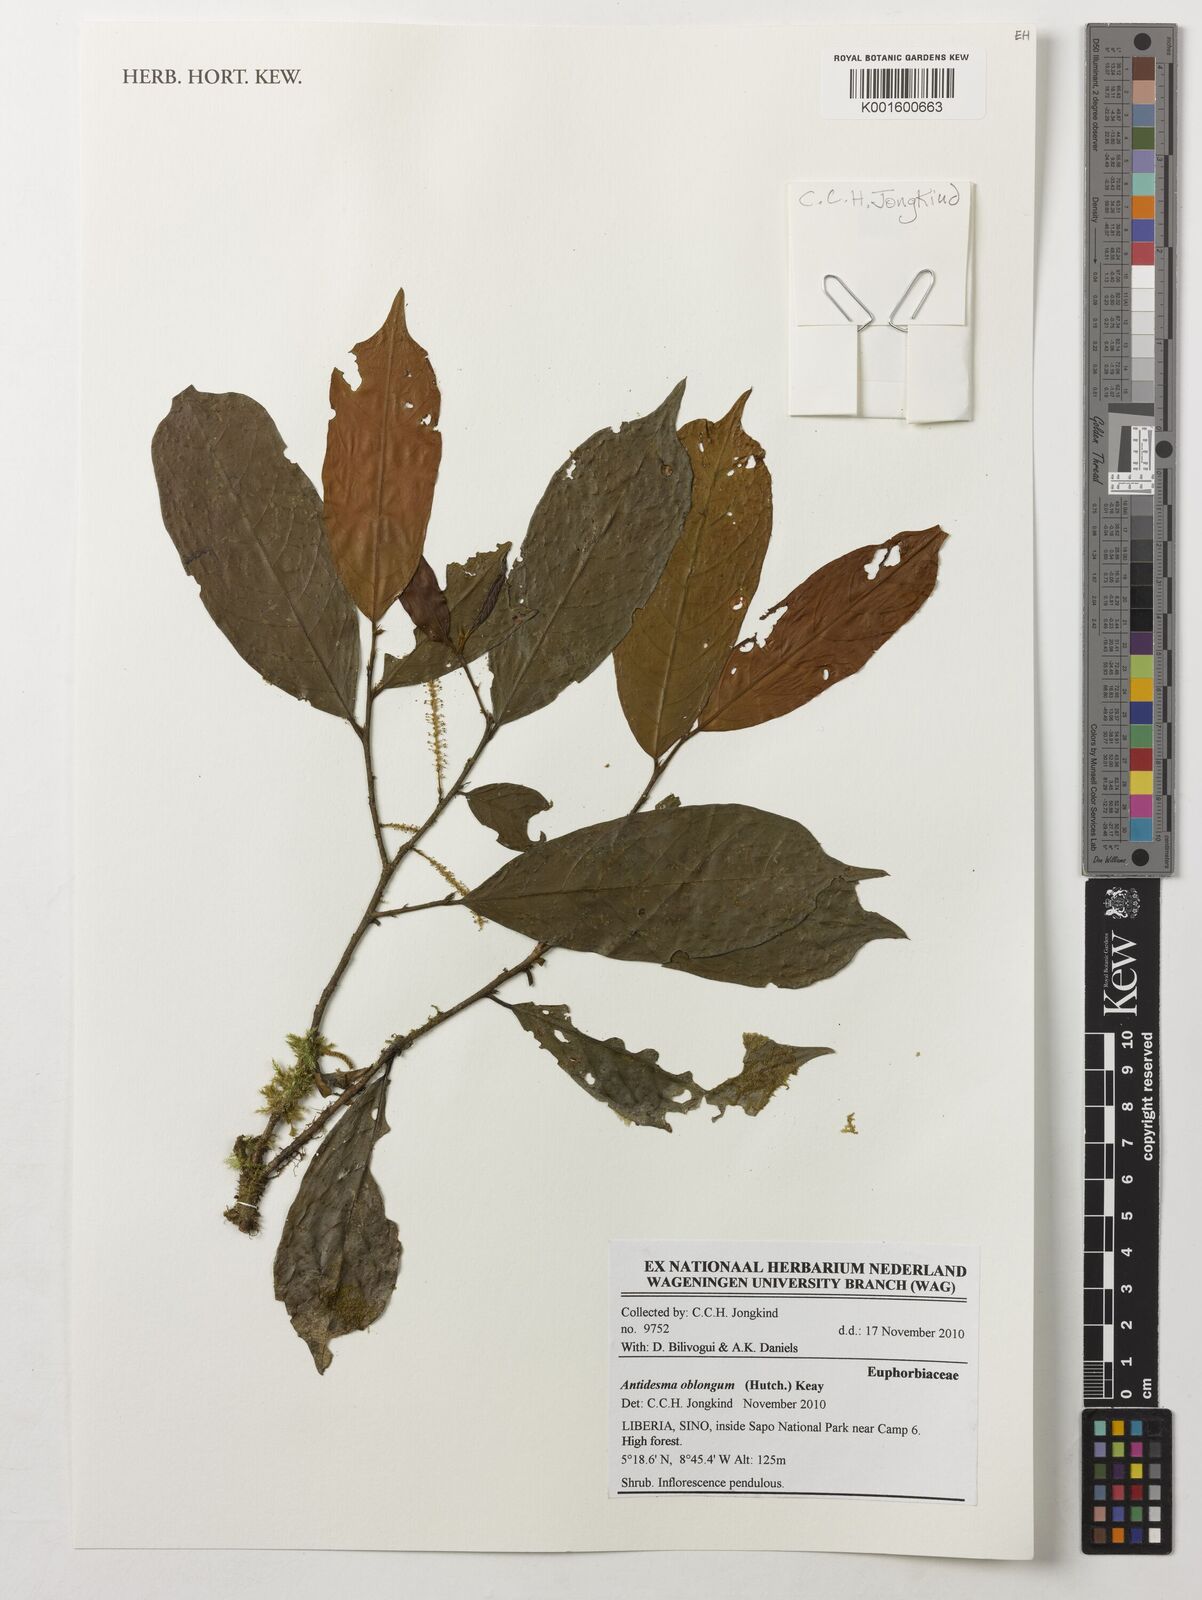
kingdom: Plantae
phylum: Tracheophyta
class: Magnoliopsida
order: Malpighiales
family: Phyllanthaceae
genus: Antidesma
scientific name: Antidesma oblongum
